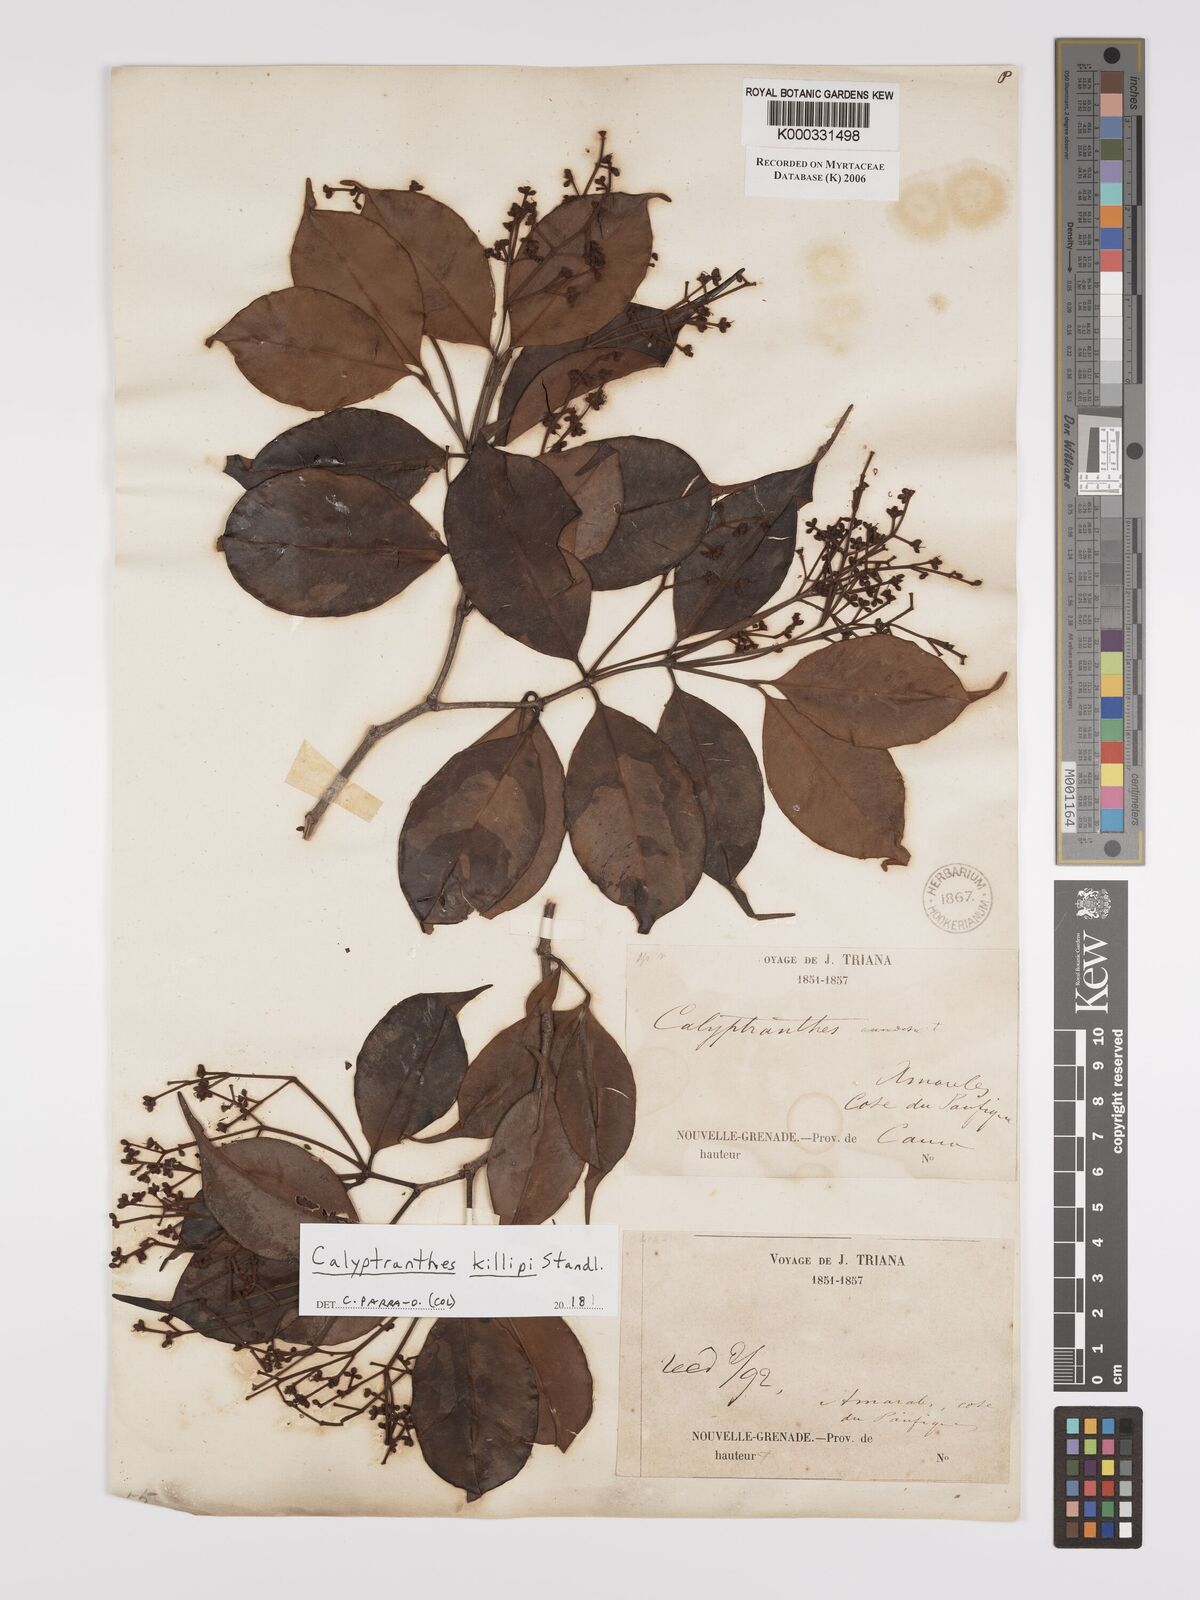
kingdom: Plantae
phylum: Tracheophyta
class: Magnoliopsida
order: Myrtales
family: Myrtaceae
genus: Calyptranthes
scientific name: Calyptranthes
